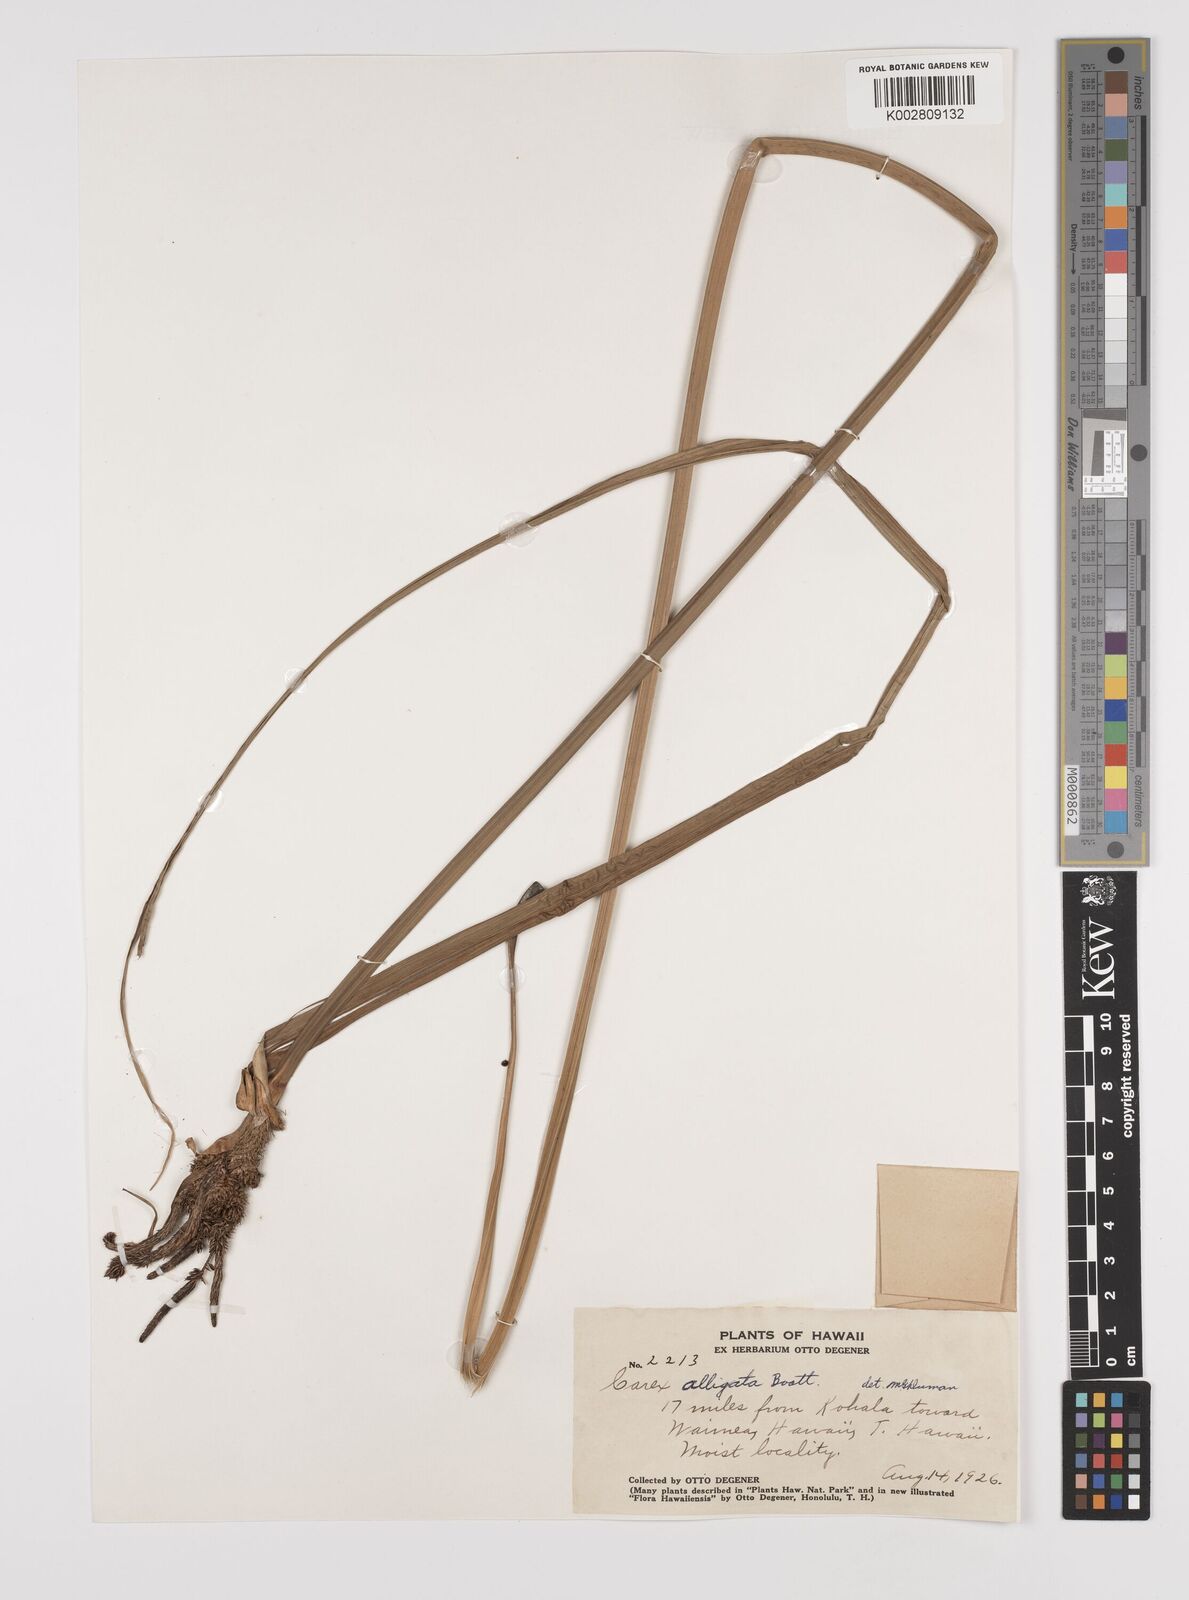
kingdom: Plantae
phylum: Tracheophyta
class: Liliopsida
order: Poales
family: Cyperaceae
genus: Carex
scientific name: Carex alligata
